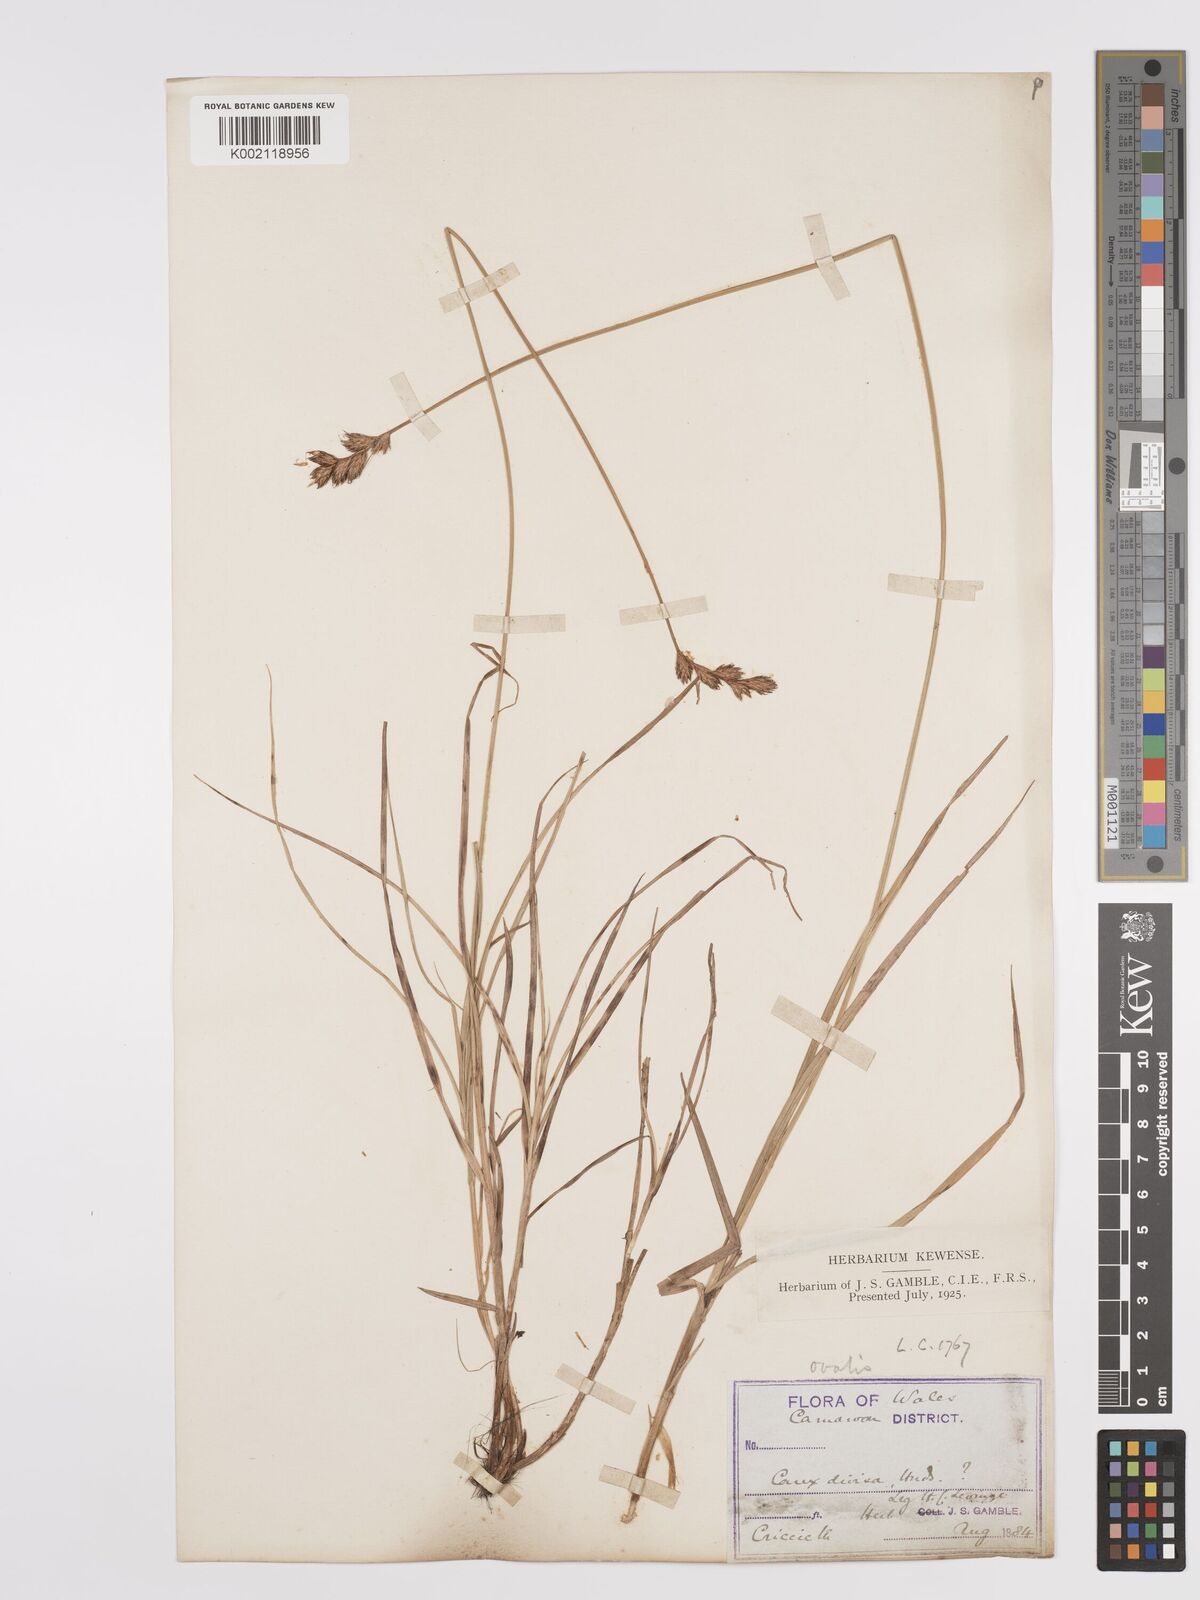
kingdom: Plantae
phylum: Tracheophyta
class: Liliopsida
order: Poales
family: Cyperaceae
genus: Carex
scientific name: Carex leporina
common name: Oval sedge
